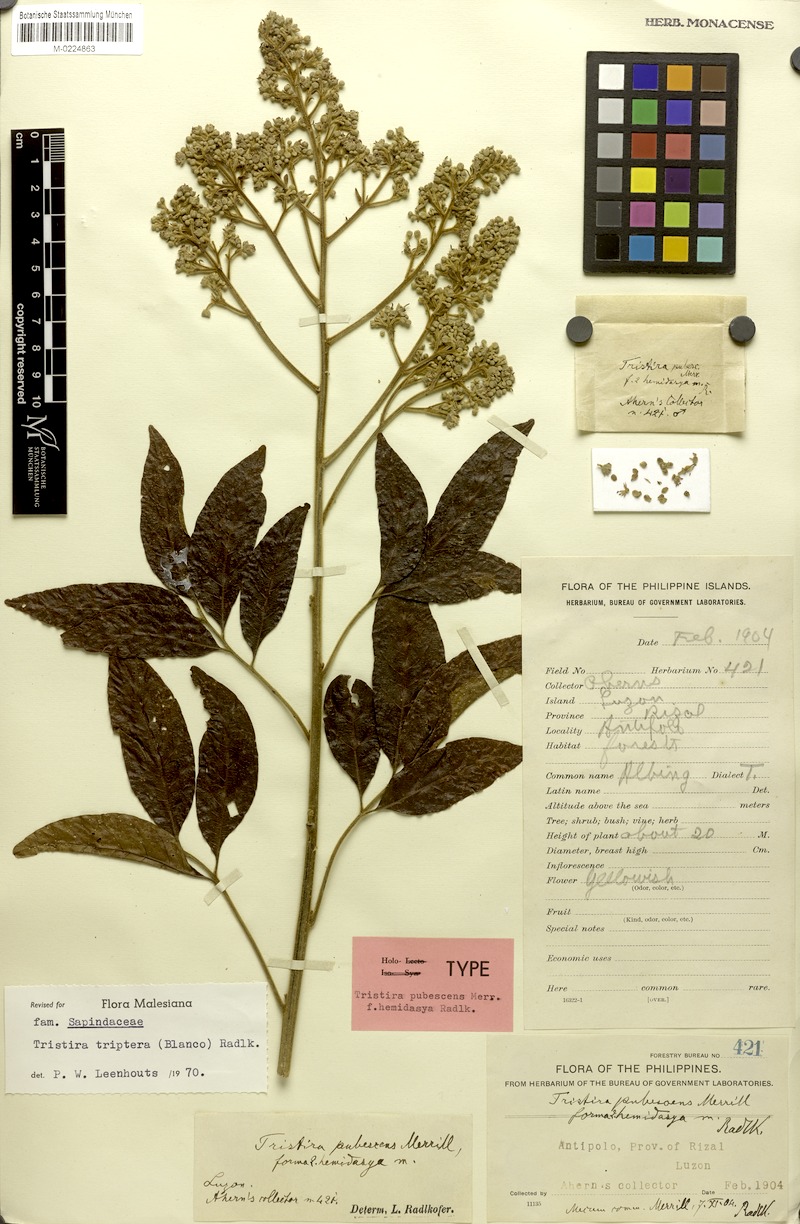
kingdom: Plantae
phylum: Tracheophyta
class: Magnoliopsida
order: Sapindales
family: Sapindaceae
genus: Tristira
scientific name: Tristira triptera
